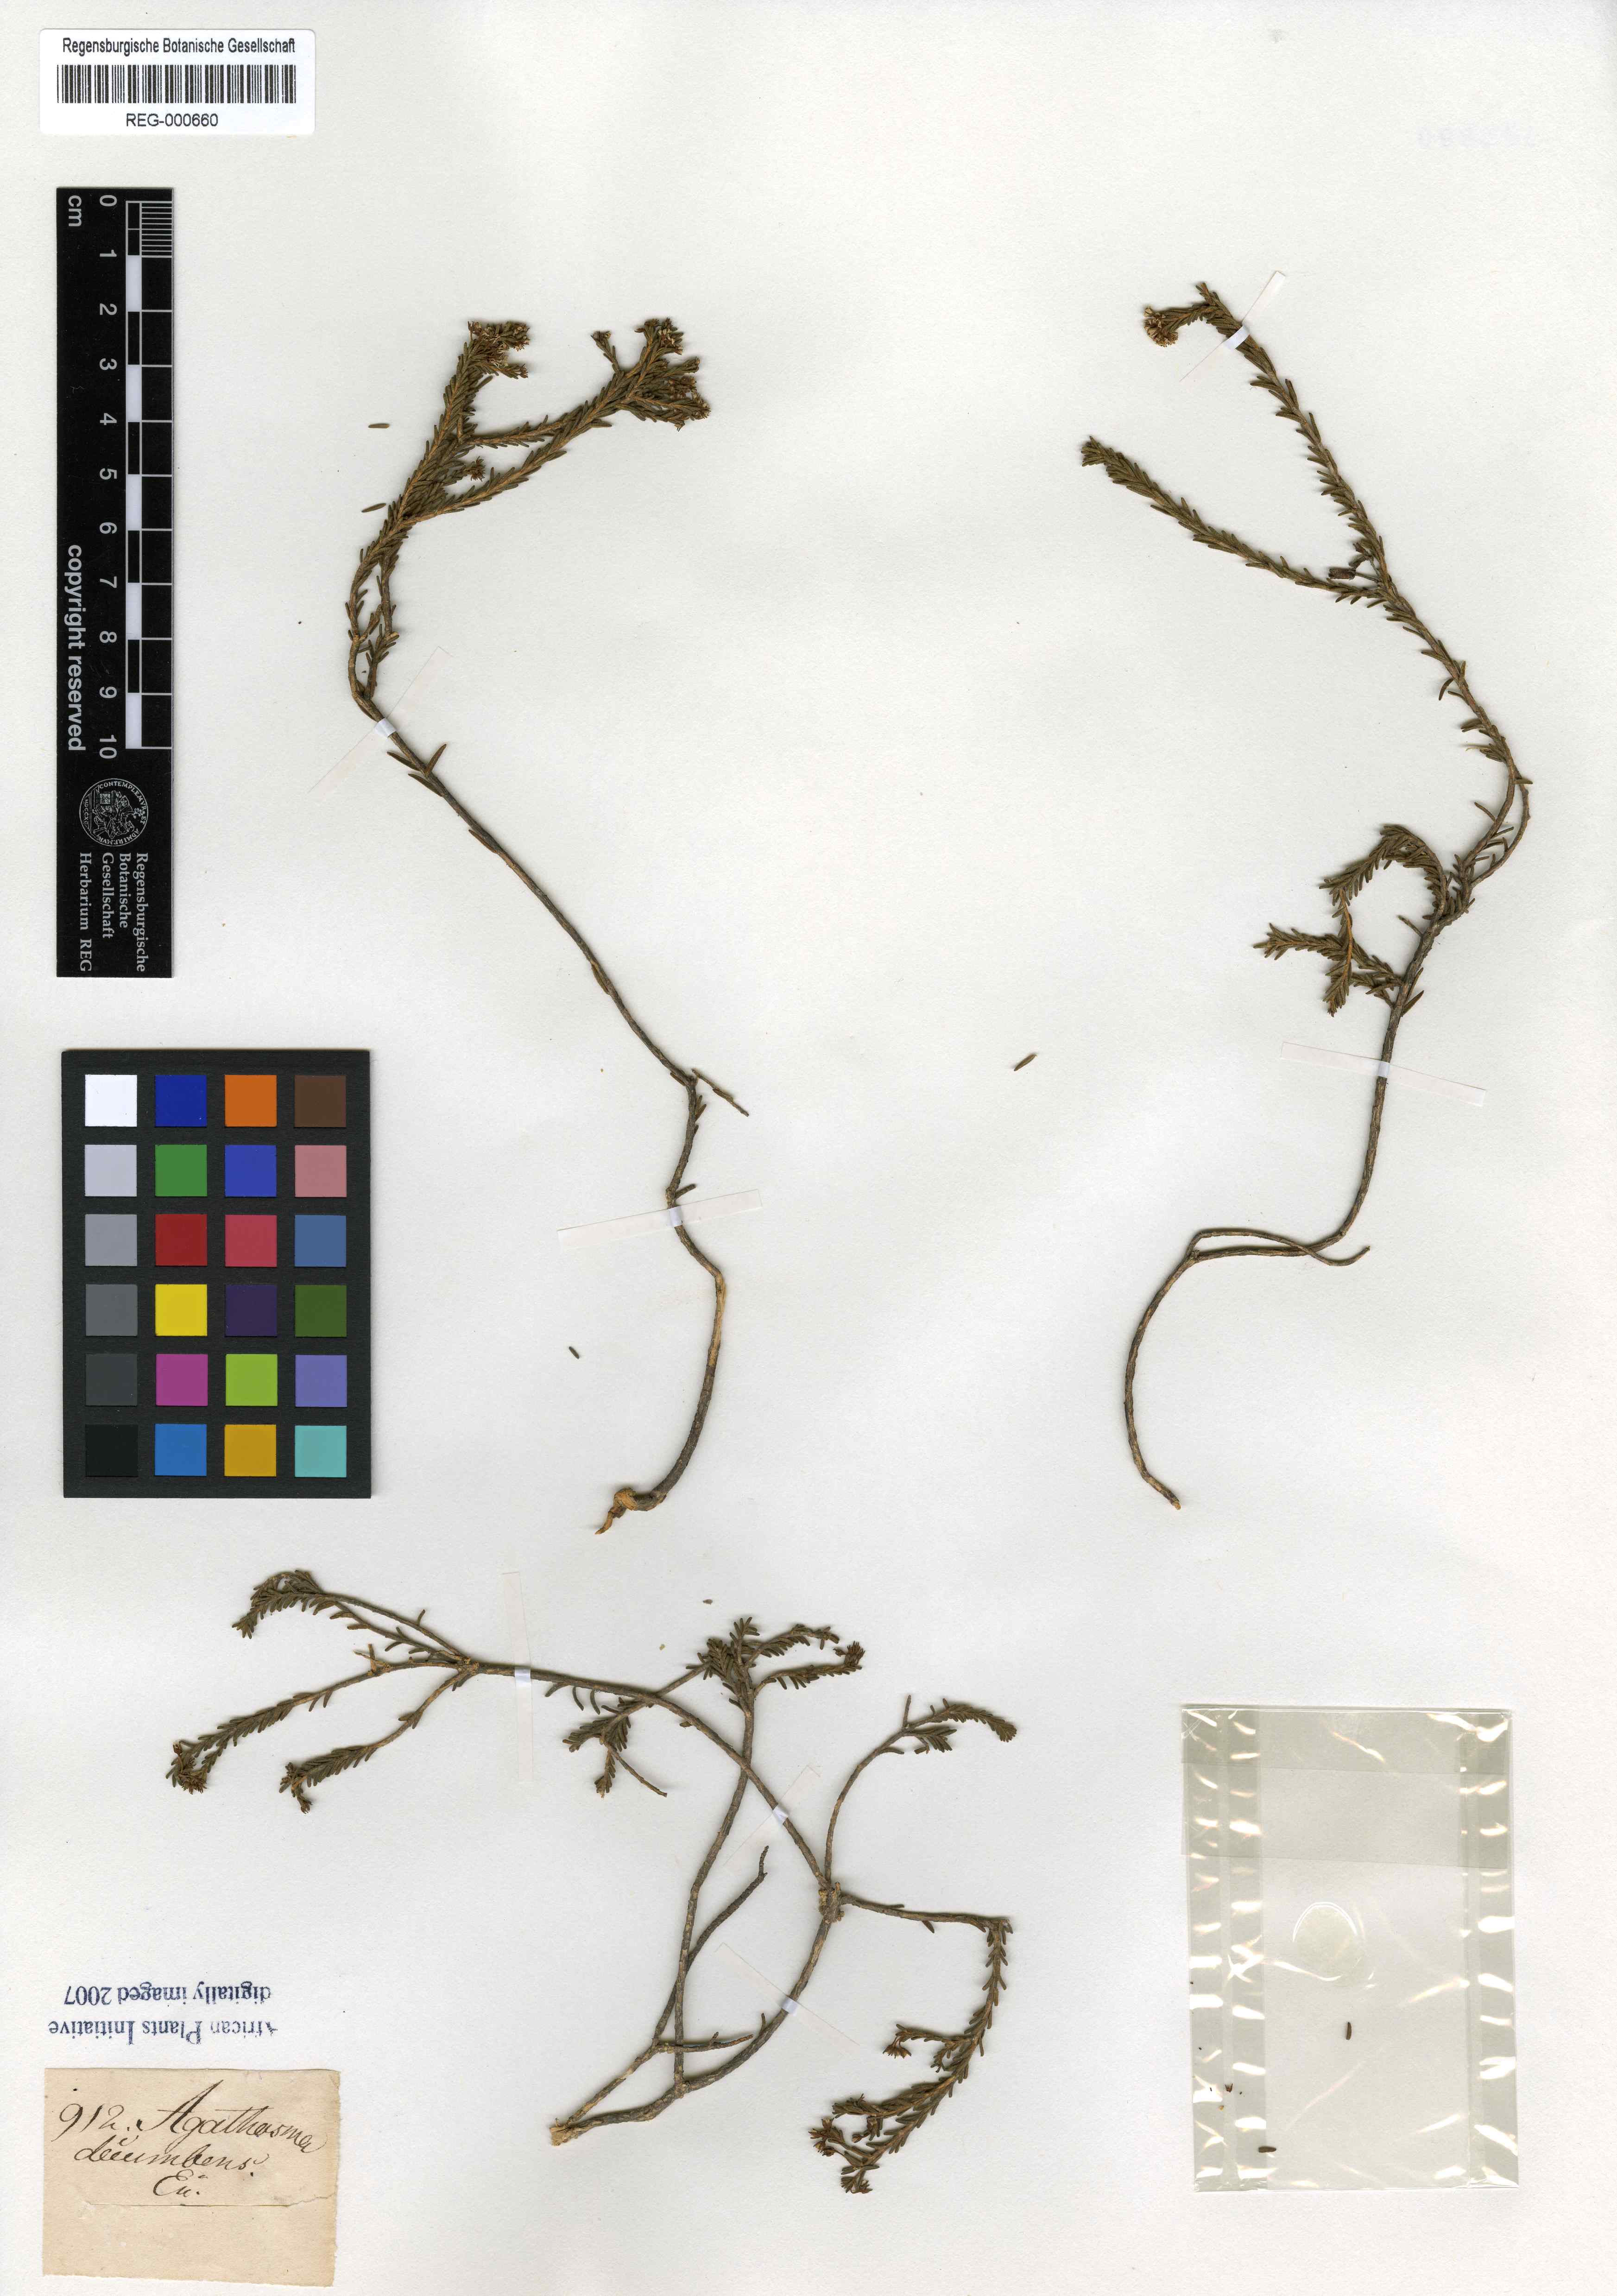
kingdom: Plantae
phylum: Tracheophyta
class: Magnoliopsida
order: Sapindales
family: Rutaceae
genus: Agathosma
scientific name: Agathosma craspedota
